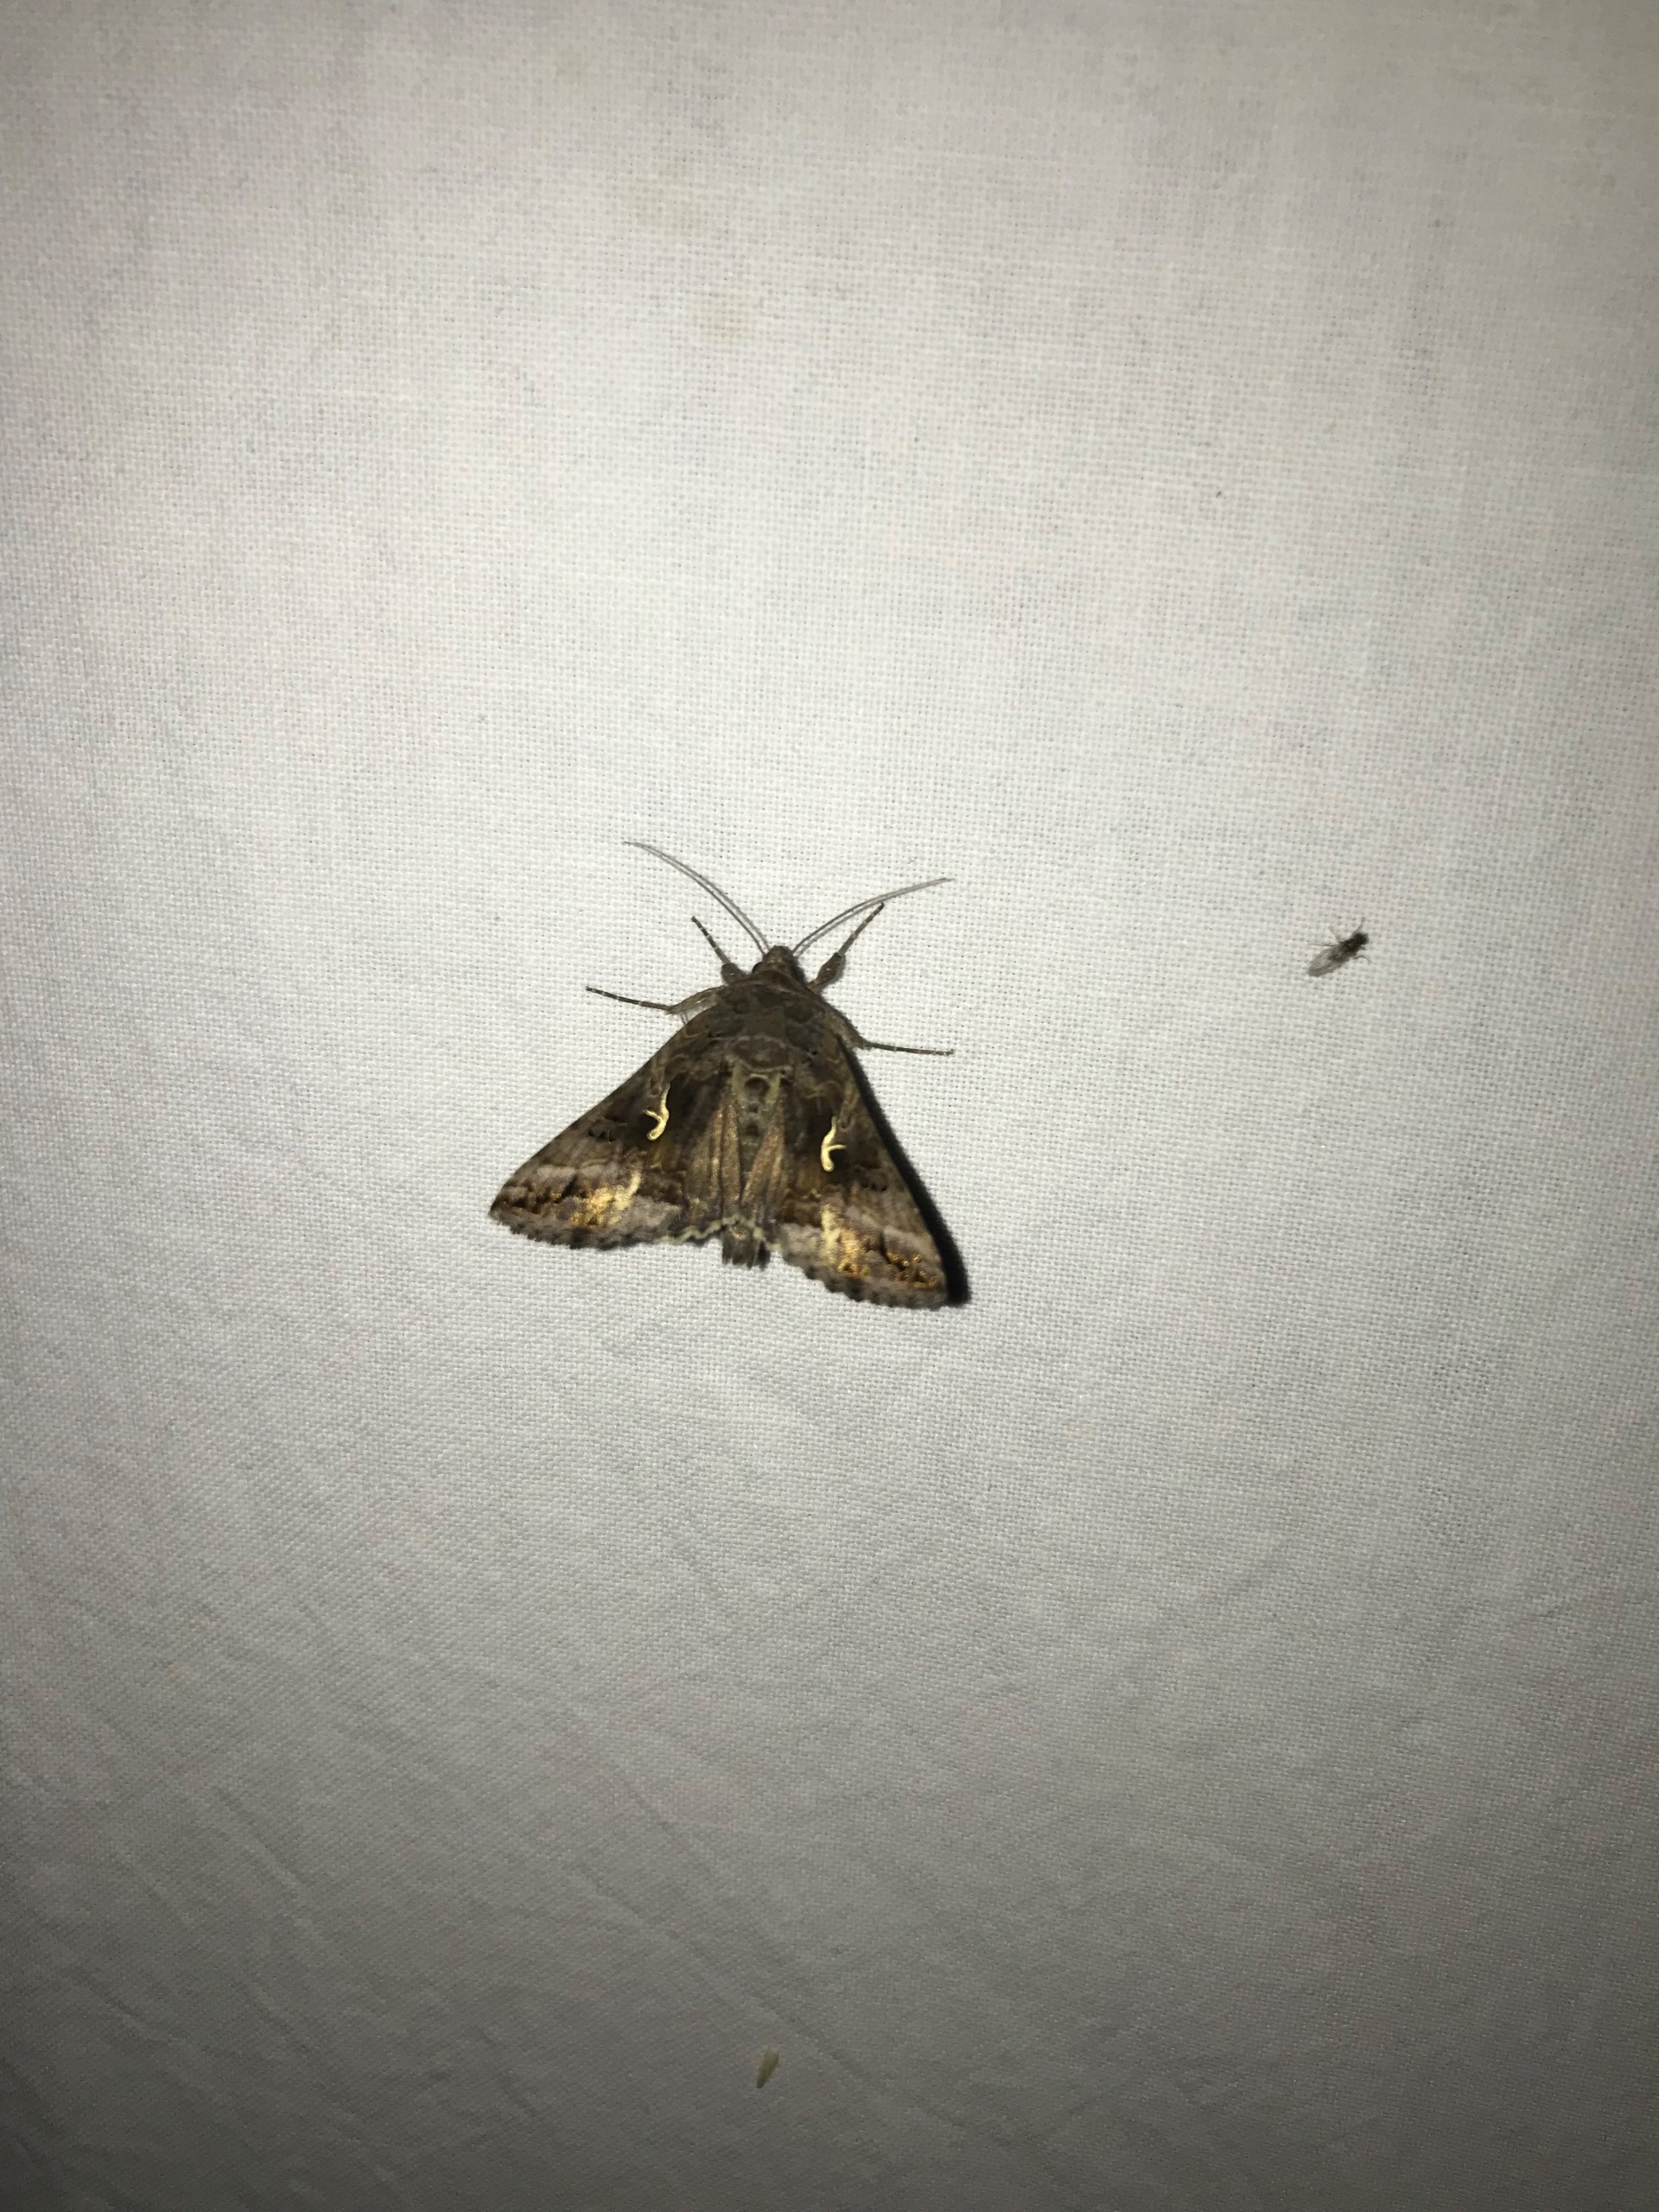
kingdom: Animalia
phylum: Arthropoda
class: Insecta
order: Lepidoptera
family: Noctuidae
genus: Autographa
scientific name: Autographa gamma
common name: Gammaugle
